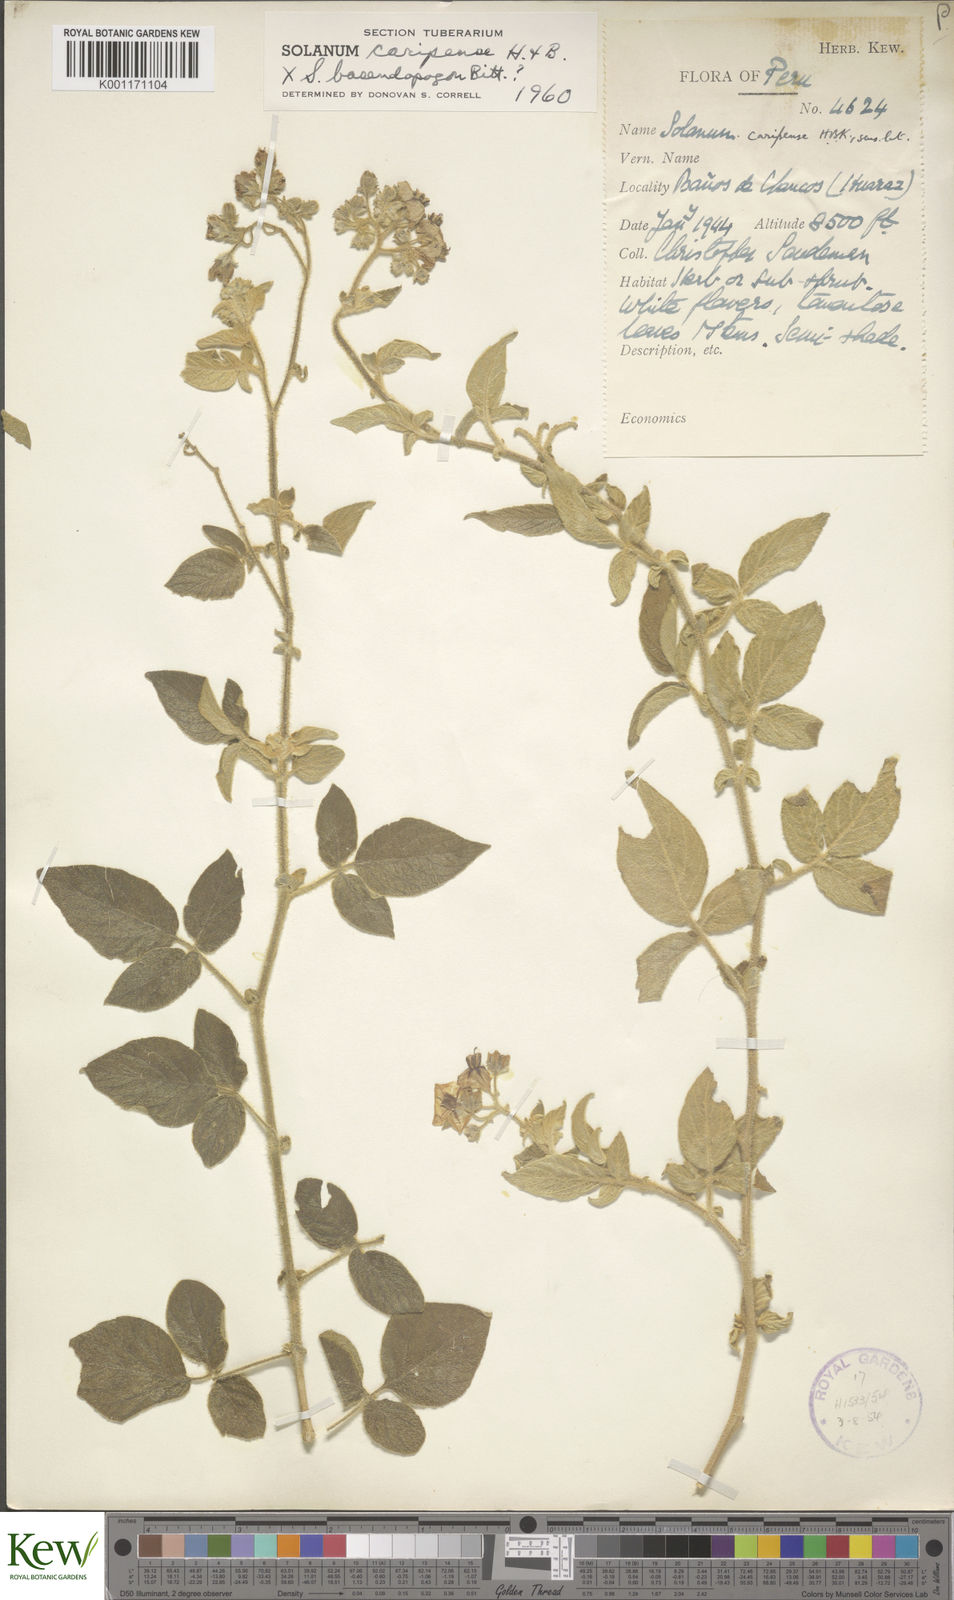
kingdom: Plantae
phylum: Tracheophyta
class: Magnoliopsida
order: Solanales
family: Solanaceae
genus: Solanum
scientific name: Solanum caripense
